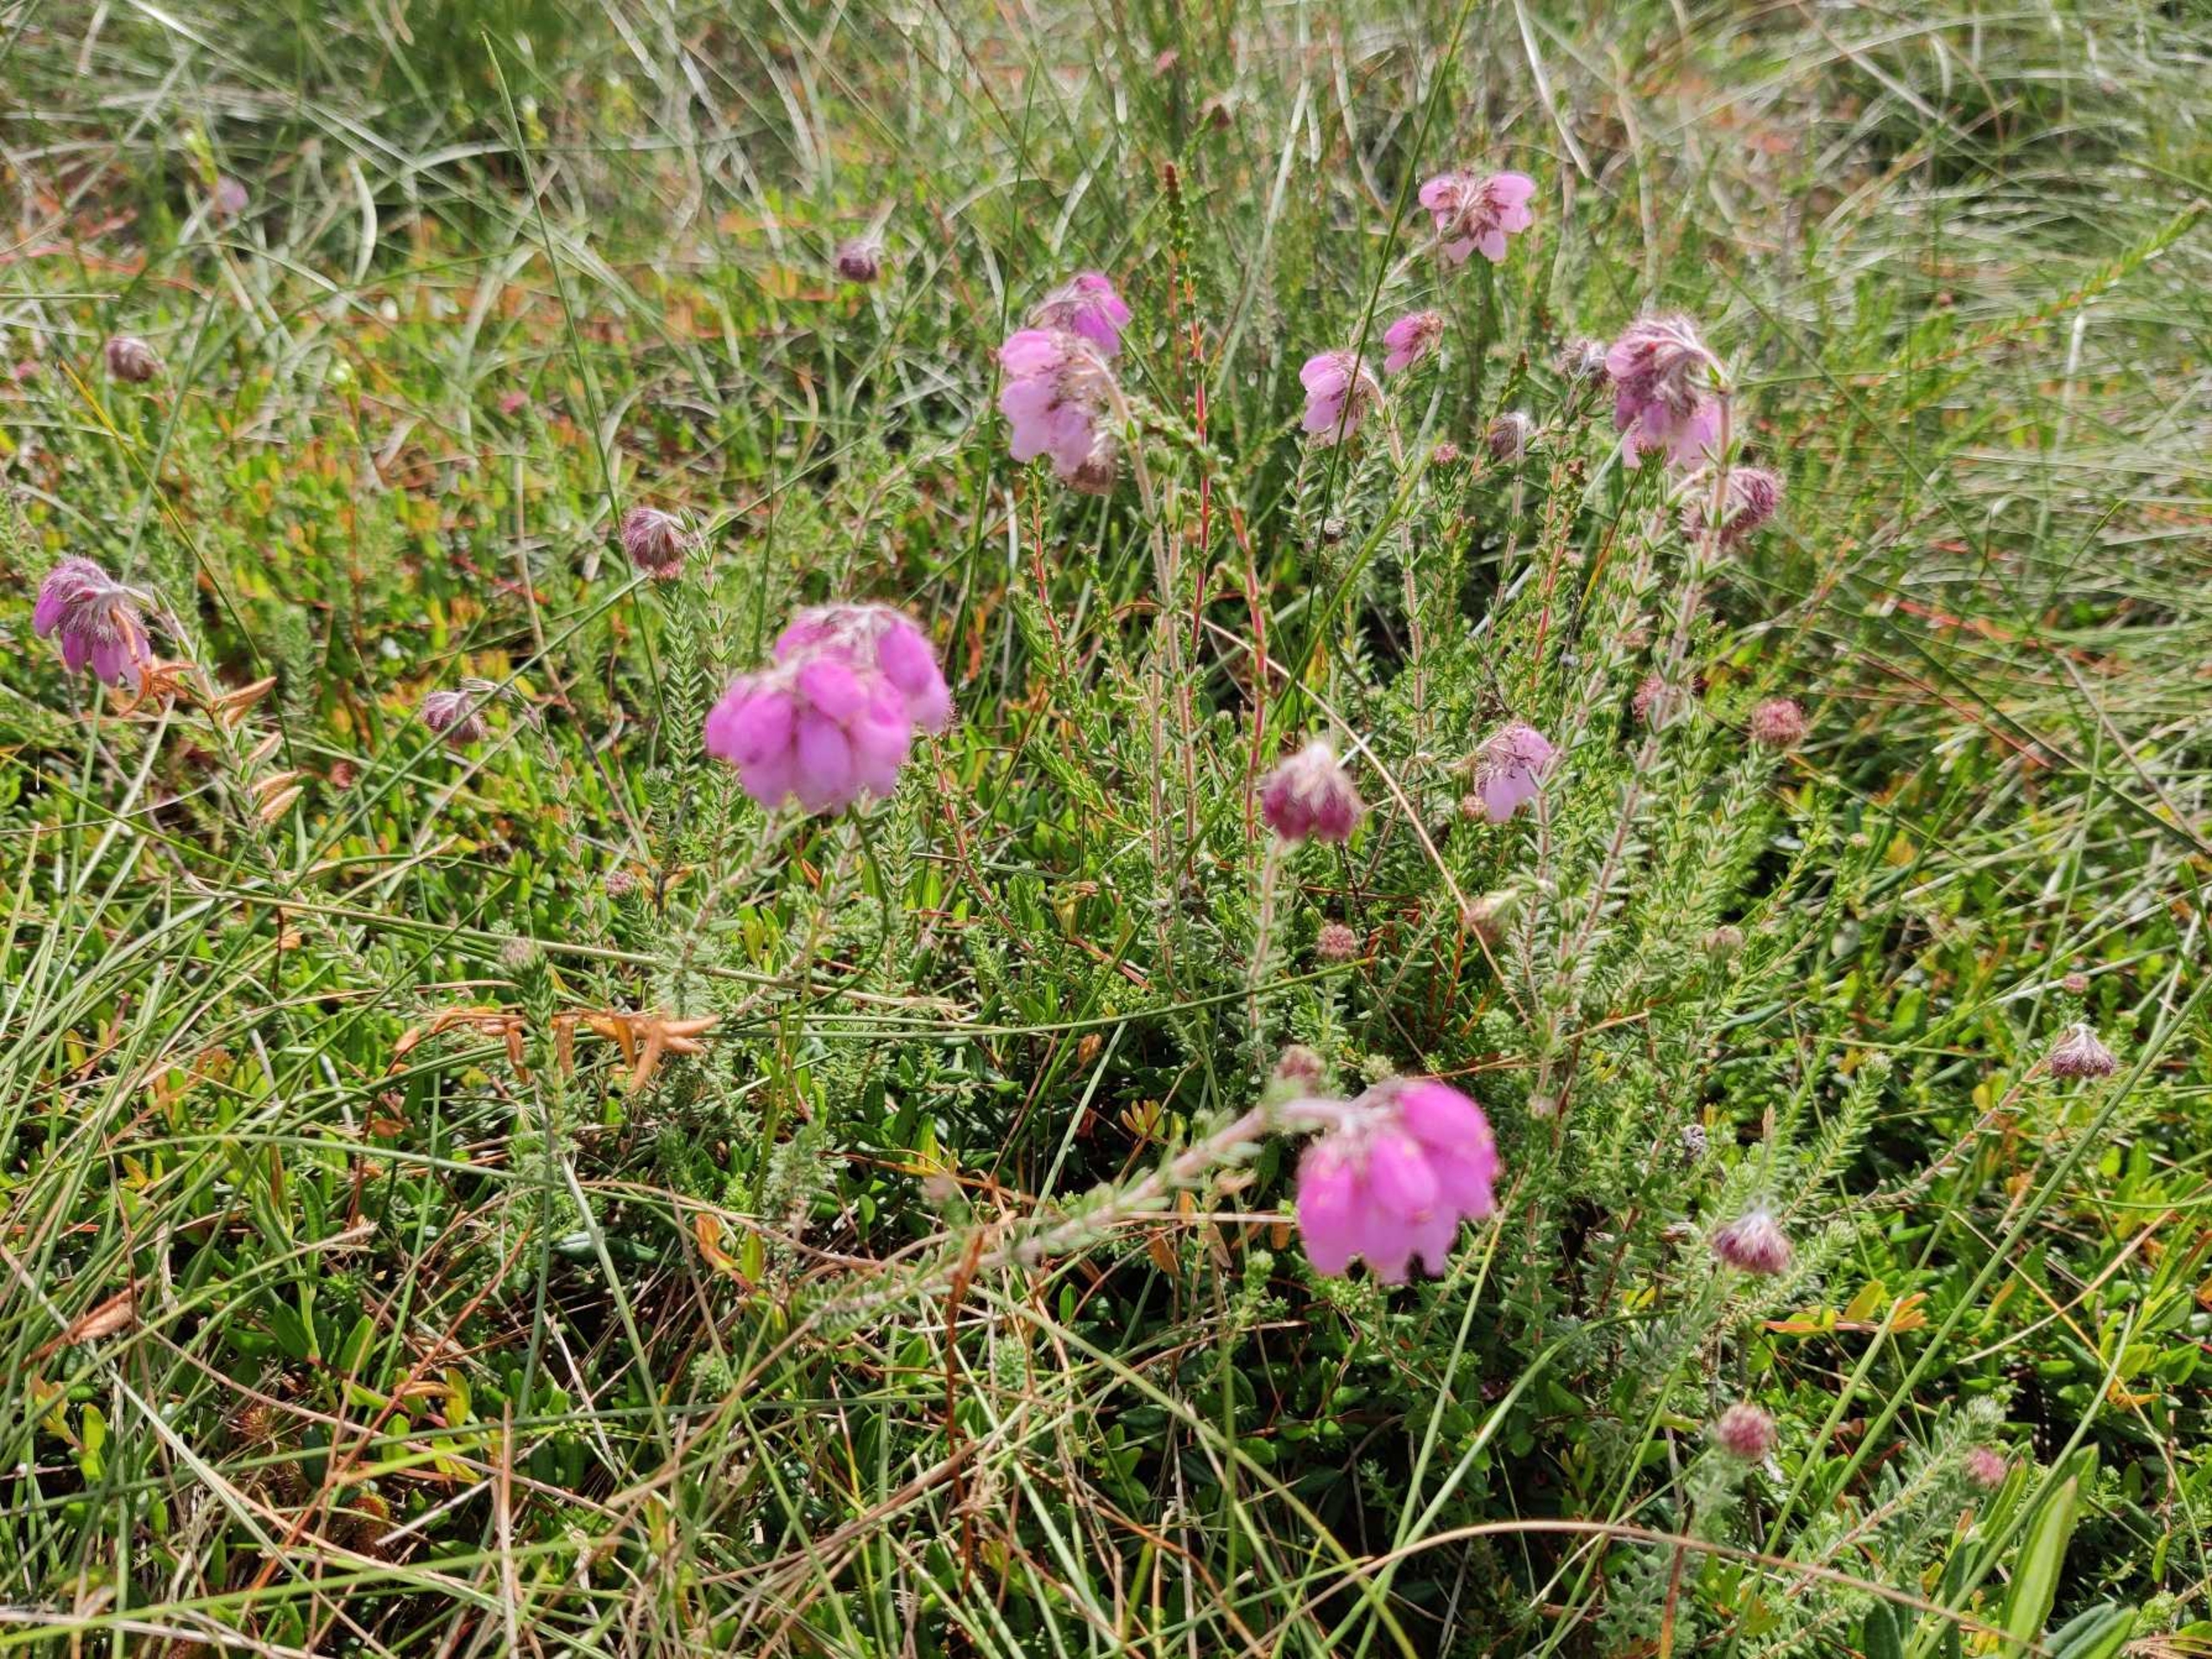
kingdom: Plantae
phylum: Tracheophyta
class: Magnoliopsida
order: Ericales
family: Ericaceae
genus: Erica
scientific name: Erica tetralix
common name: Klokkelyng
